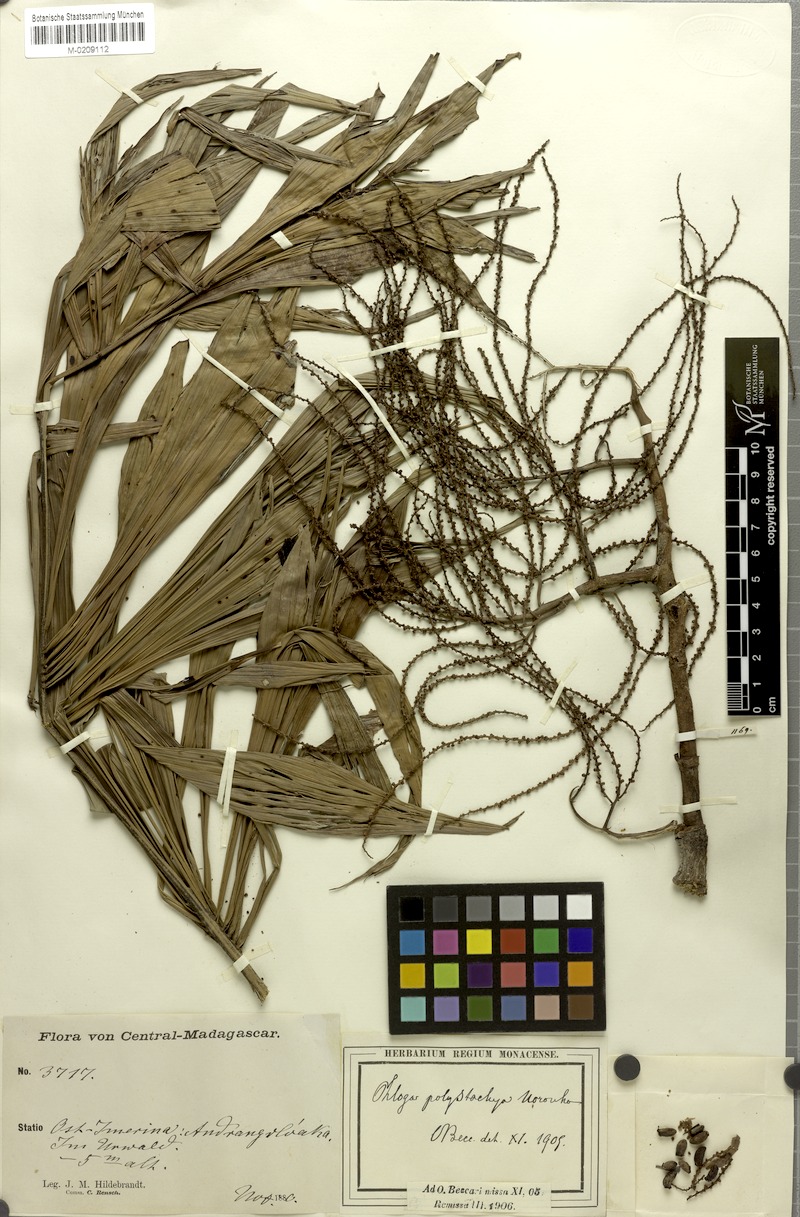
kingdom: Plantae
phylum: Tracheophyta
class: Liliopsida
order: Arecales
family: Arecaceae
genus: Dypsis
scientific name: Dypsis nodifera
